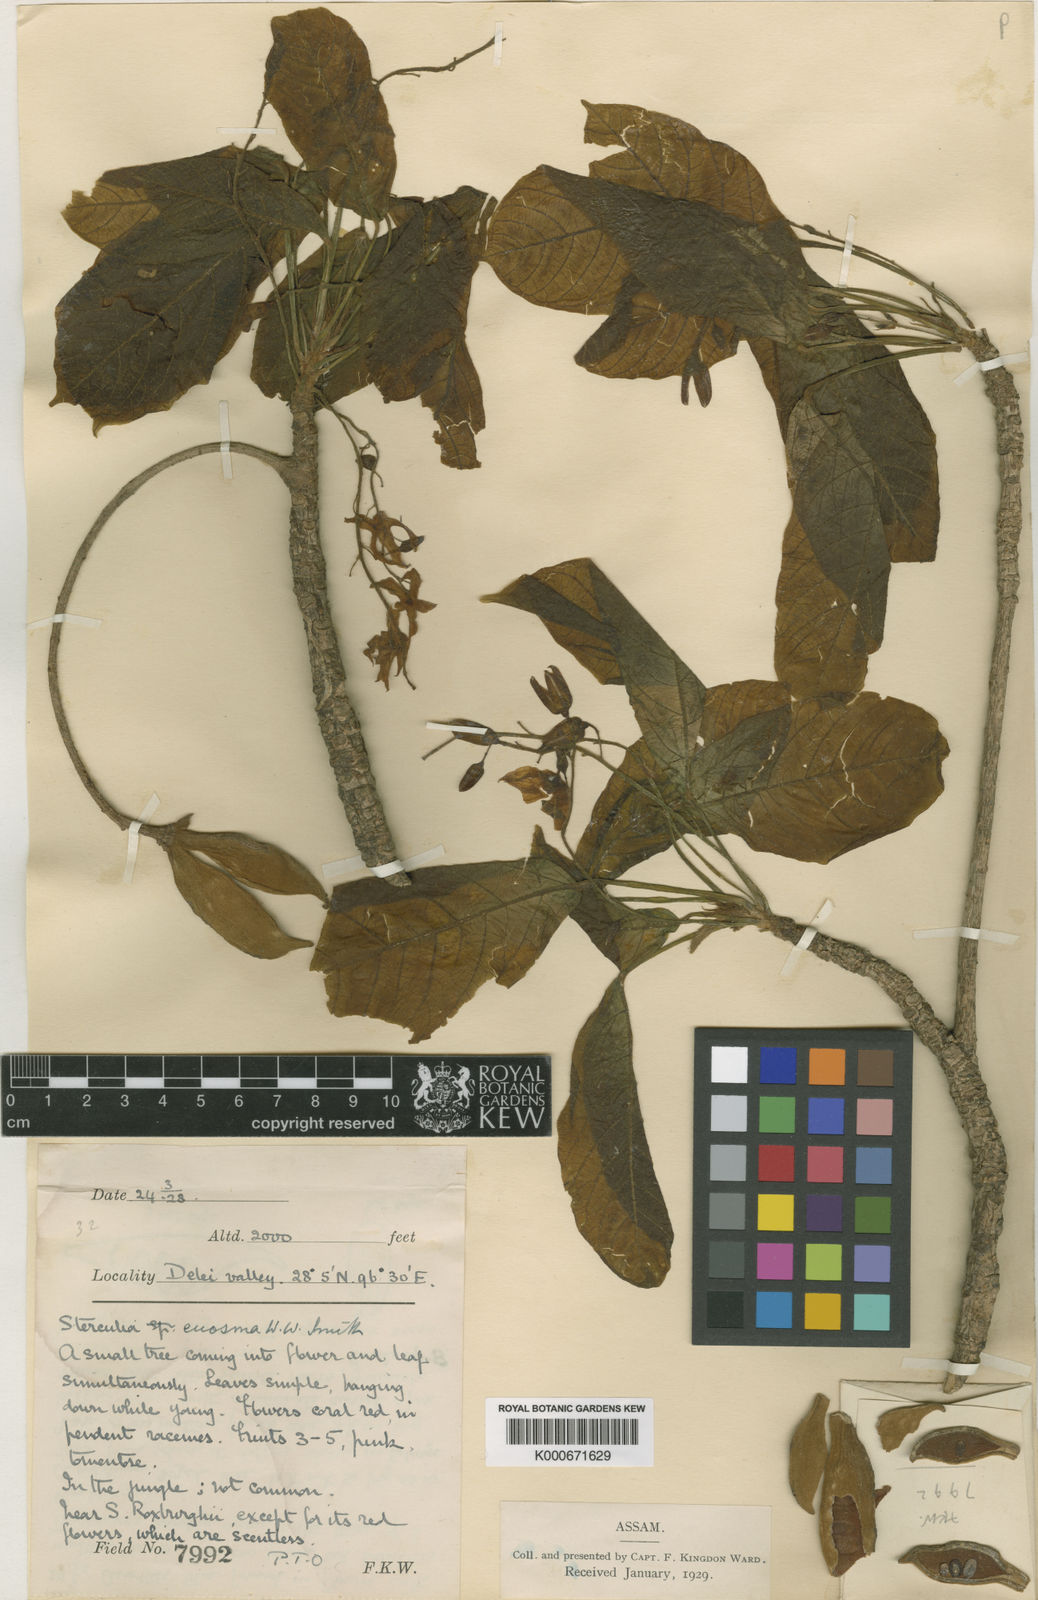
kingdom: Plantae
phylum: Tracheophyta
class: Magnoliopsida
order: Malvales
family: Malvaceae
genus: Sterculia
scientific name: Sterculia euosma
